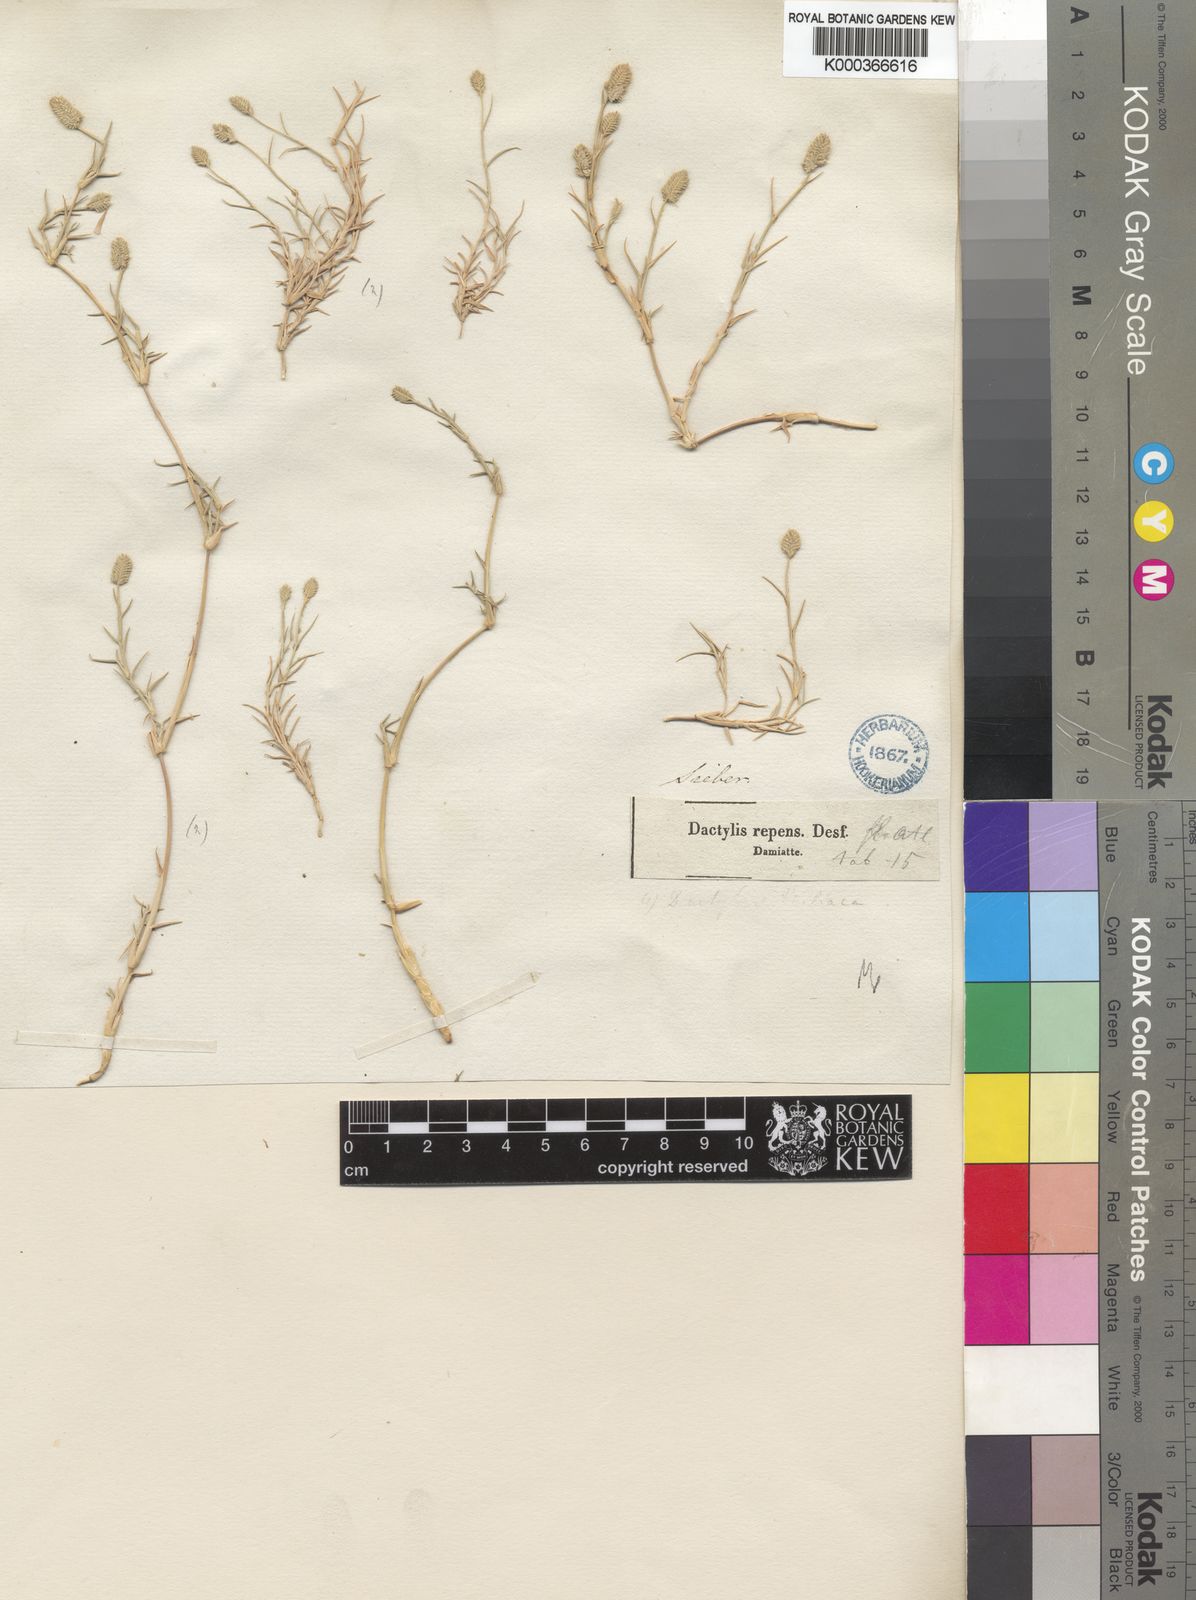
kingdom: Plantae
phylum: Tracheophyta
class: Liliopsida
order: Poales
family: Poaceae
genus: Aeluropus
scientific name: Aeluropus lagopoides
